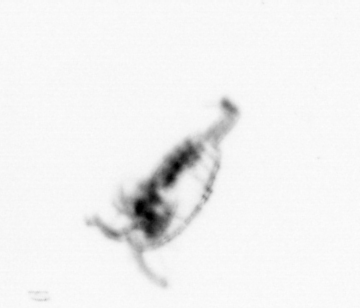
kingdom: Animalia
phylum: Arthropoda
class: Copepoda
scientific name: Copepoda
